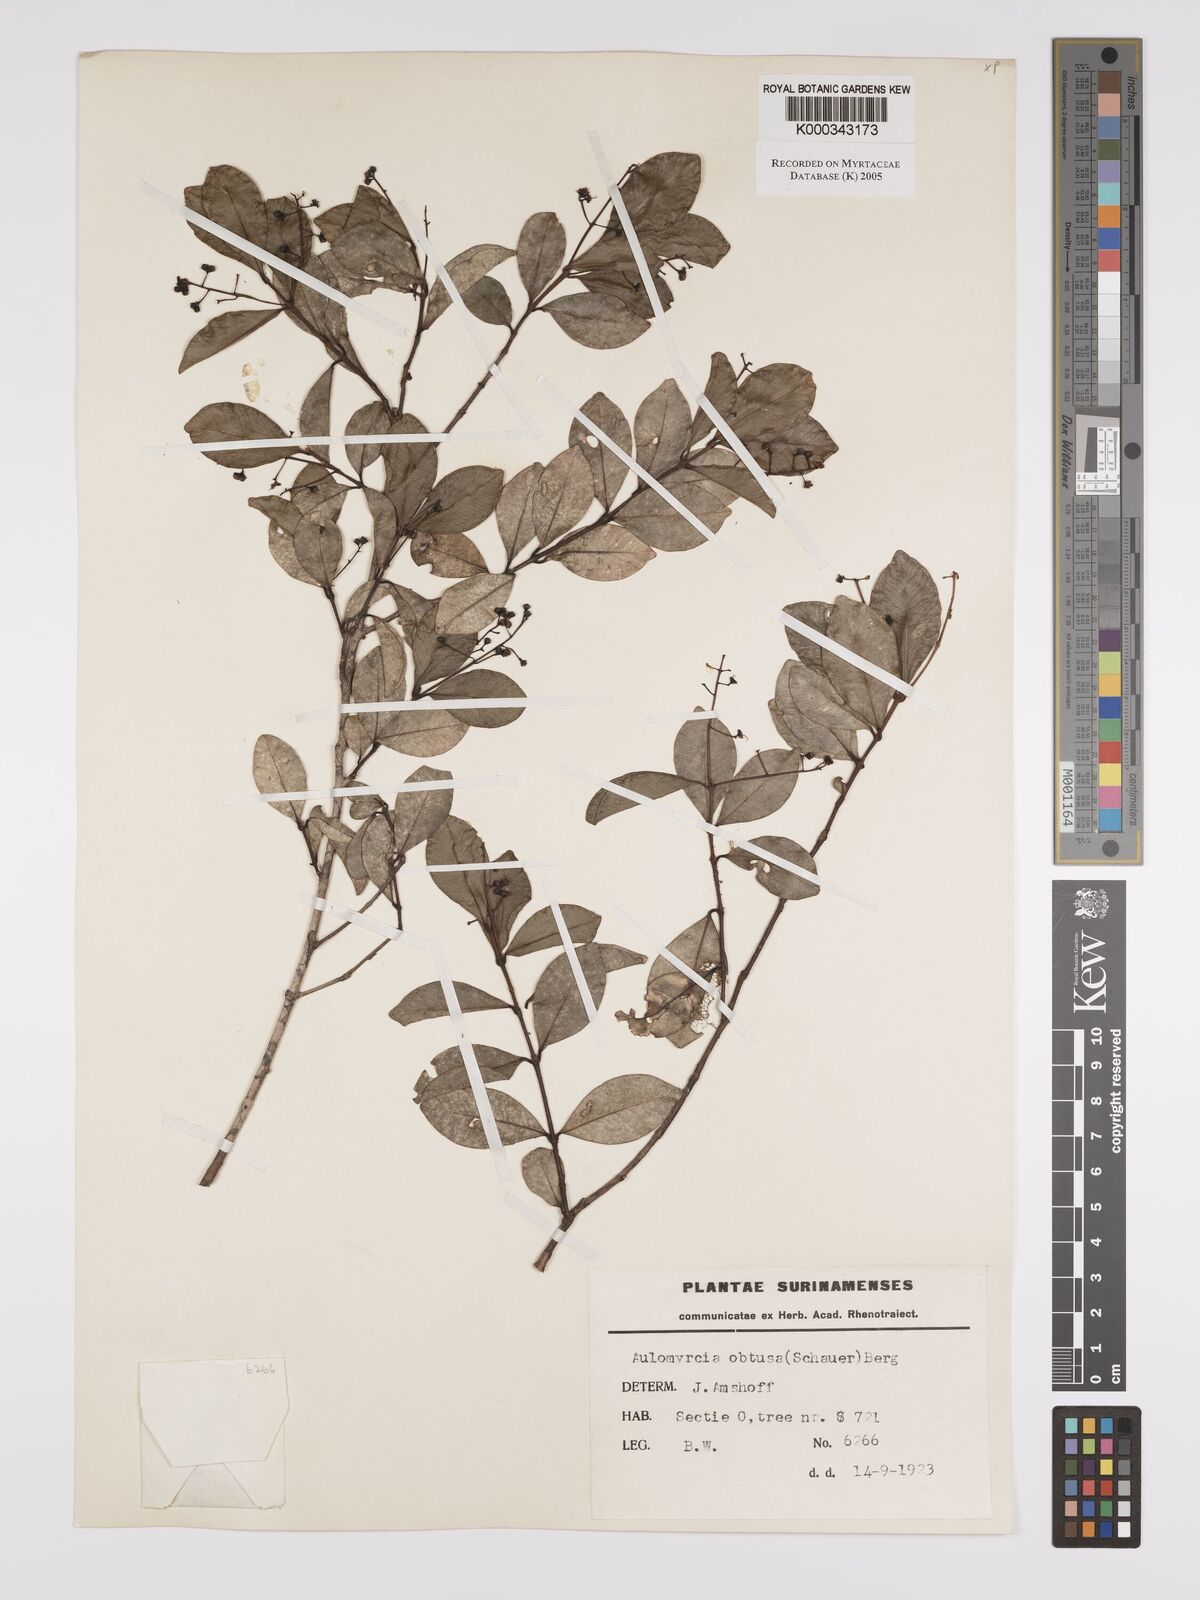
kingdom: Plantae
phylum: Tracheophyta
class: Magnoliopsida
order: Myrtales
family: Myrtaceae
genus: Myrcia
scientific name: Myrcia guianensis
